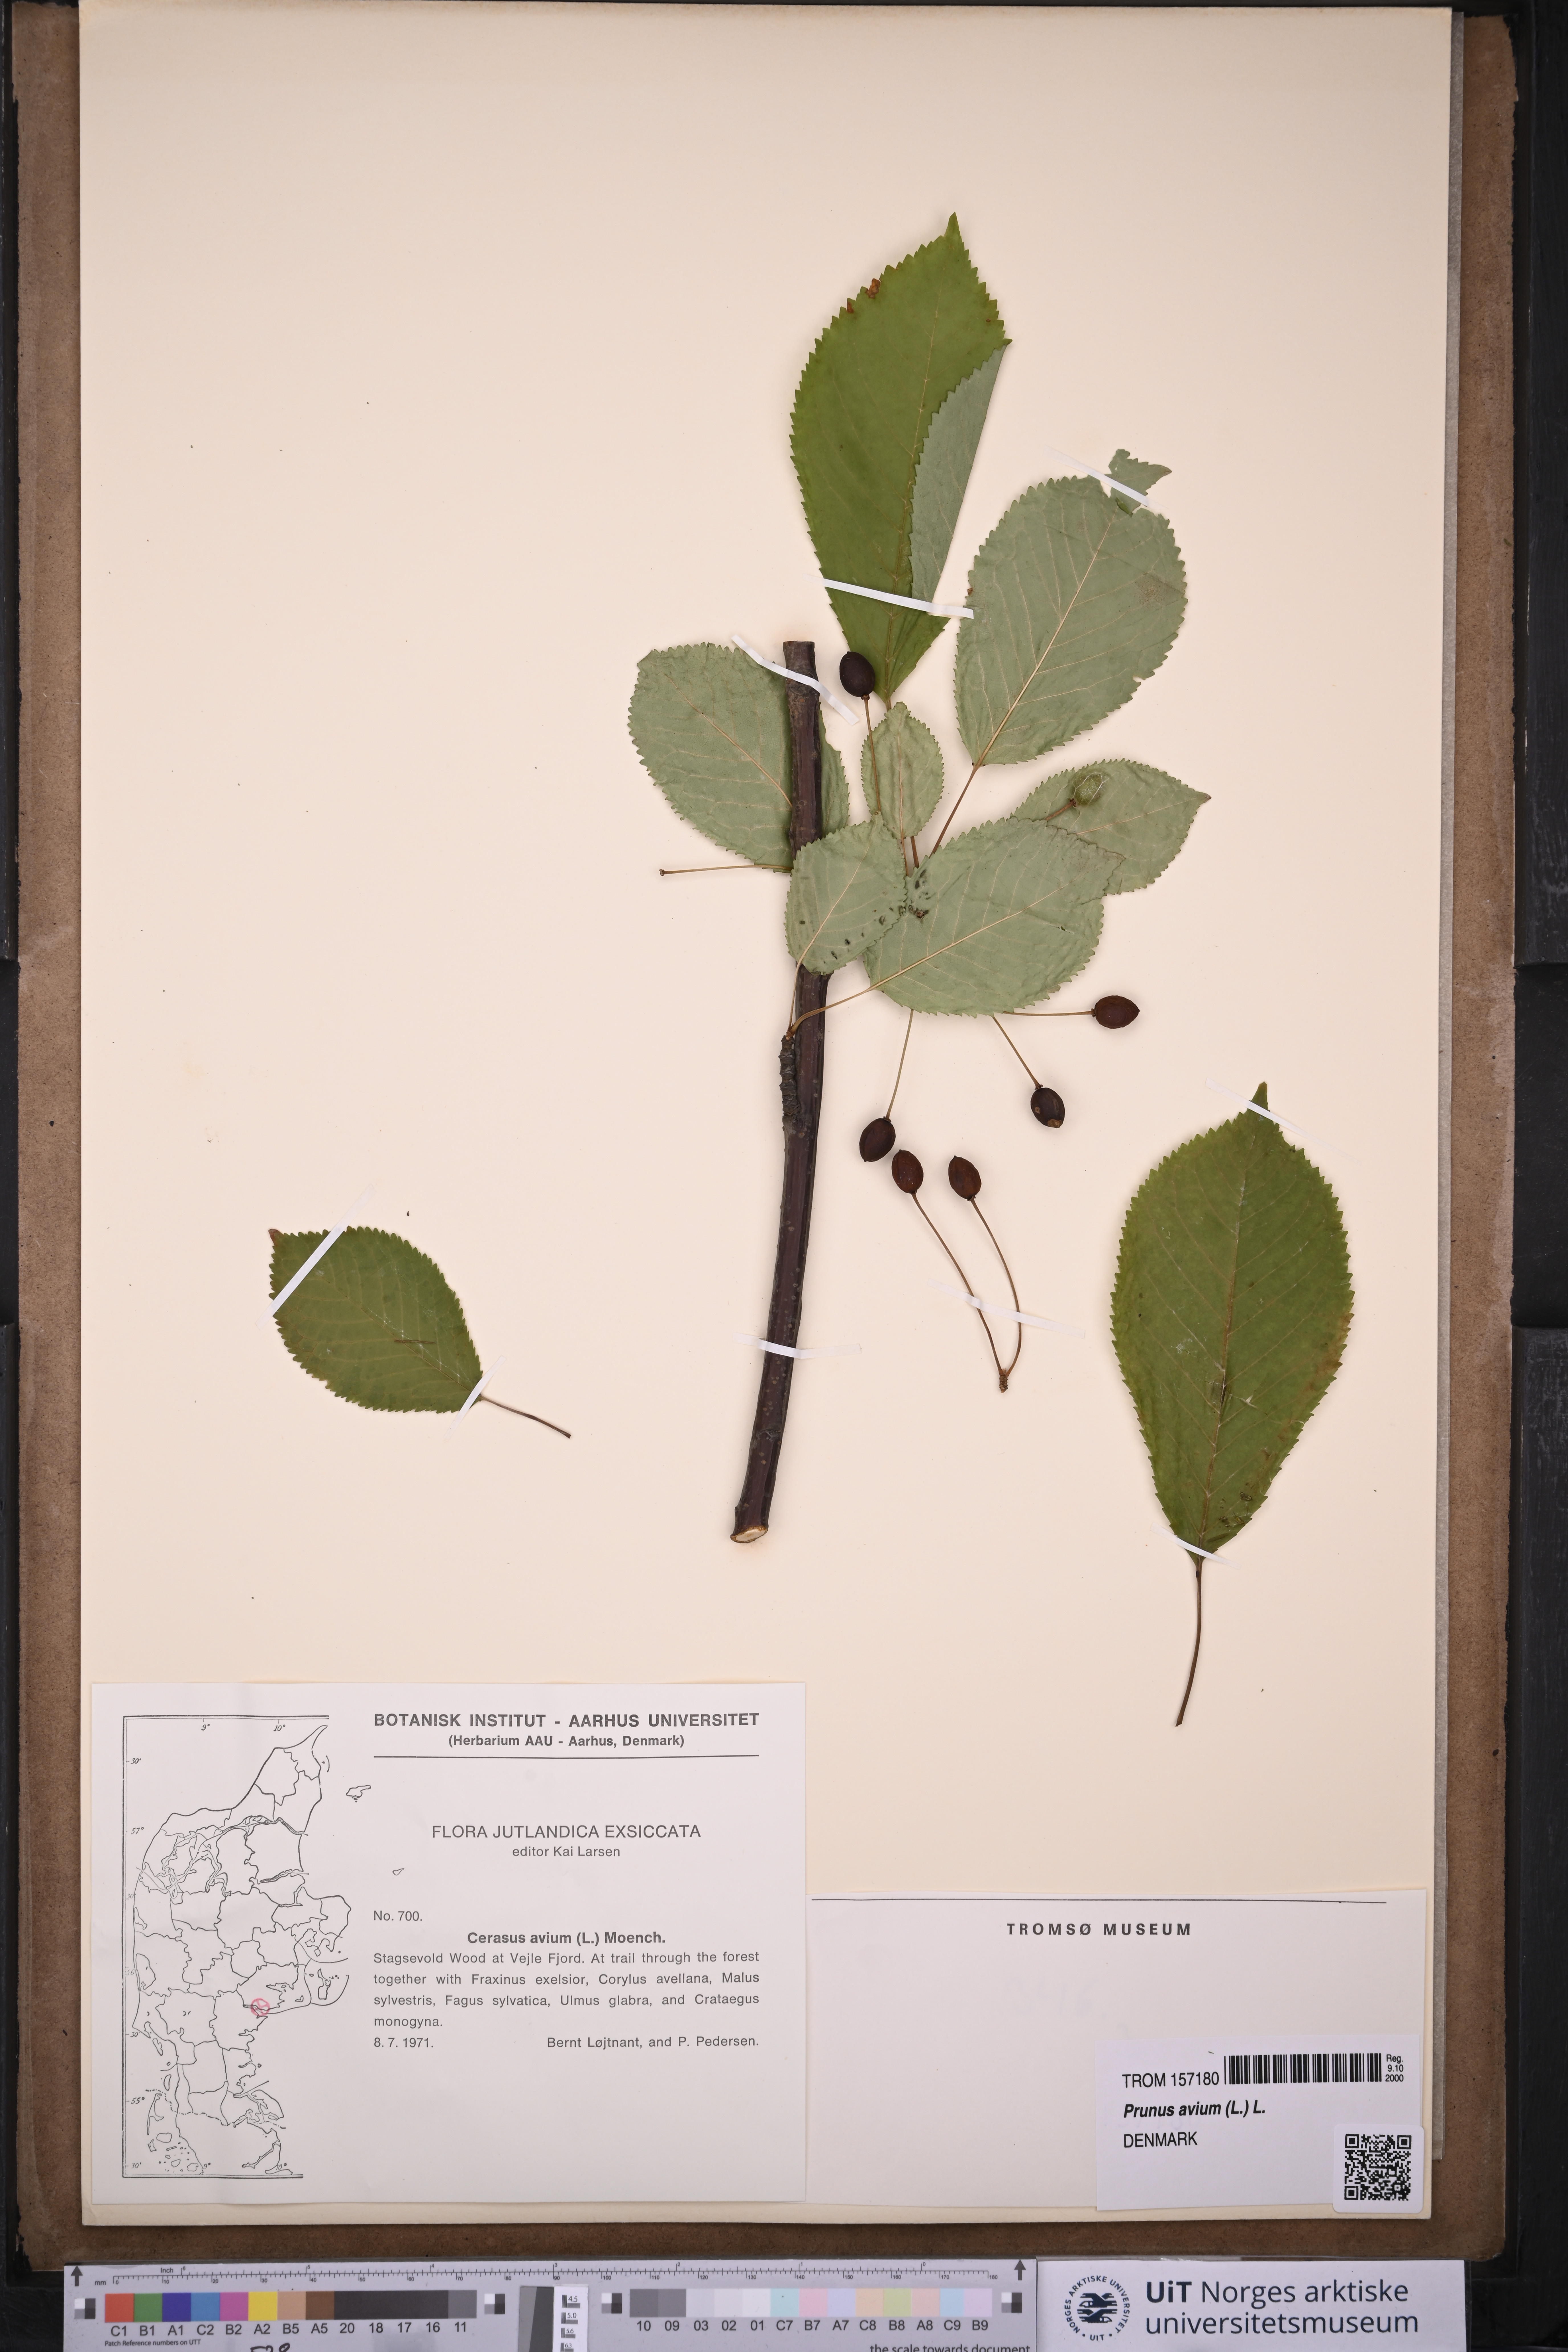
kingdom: Plantae
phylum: Tracheophyta
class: Magnoliopsida
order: Rosales
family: Rosaceae
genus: Prunus
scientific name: Prunus avium
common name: Sweet cherry
